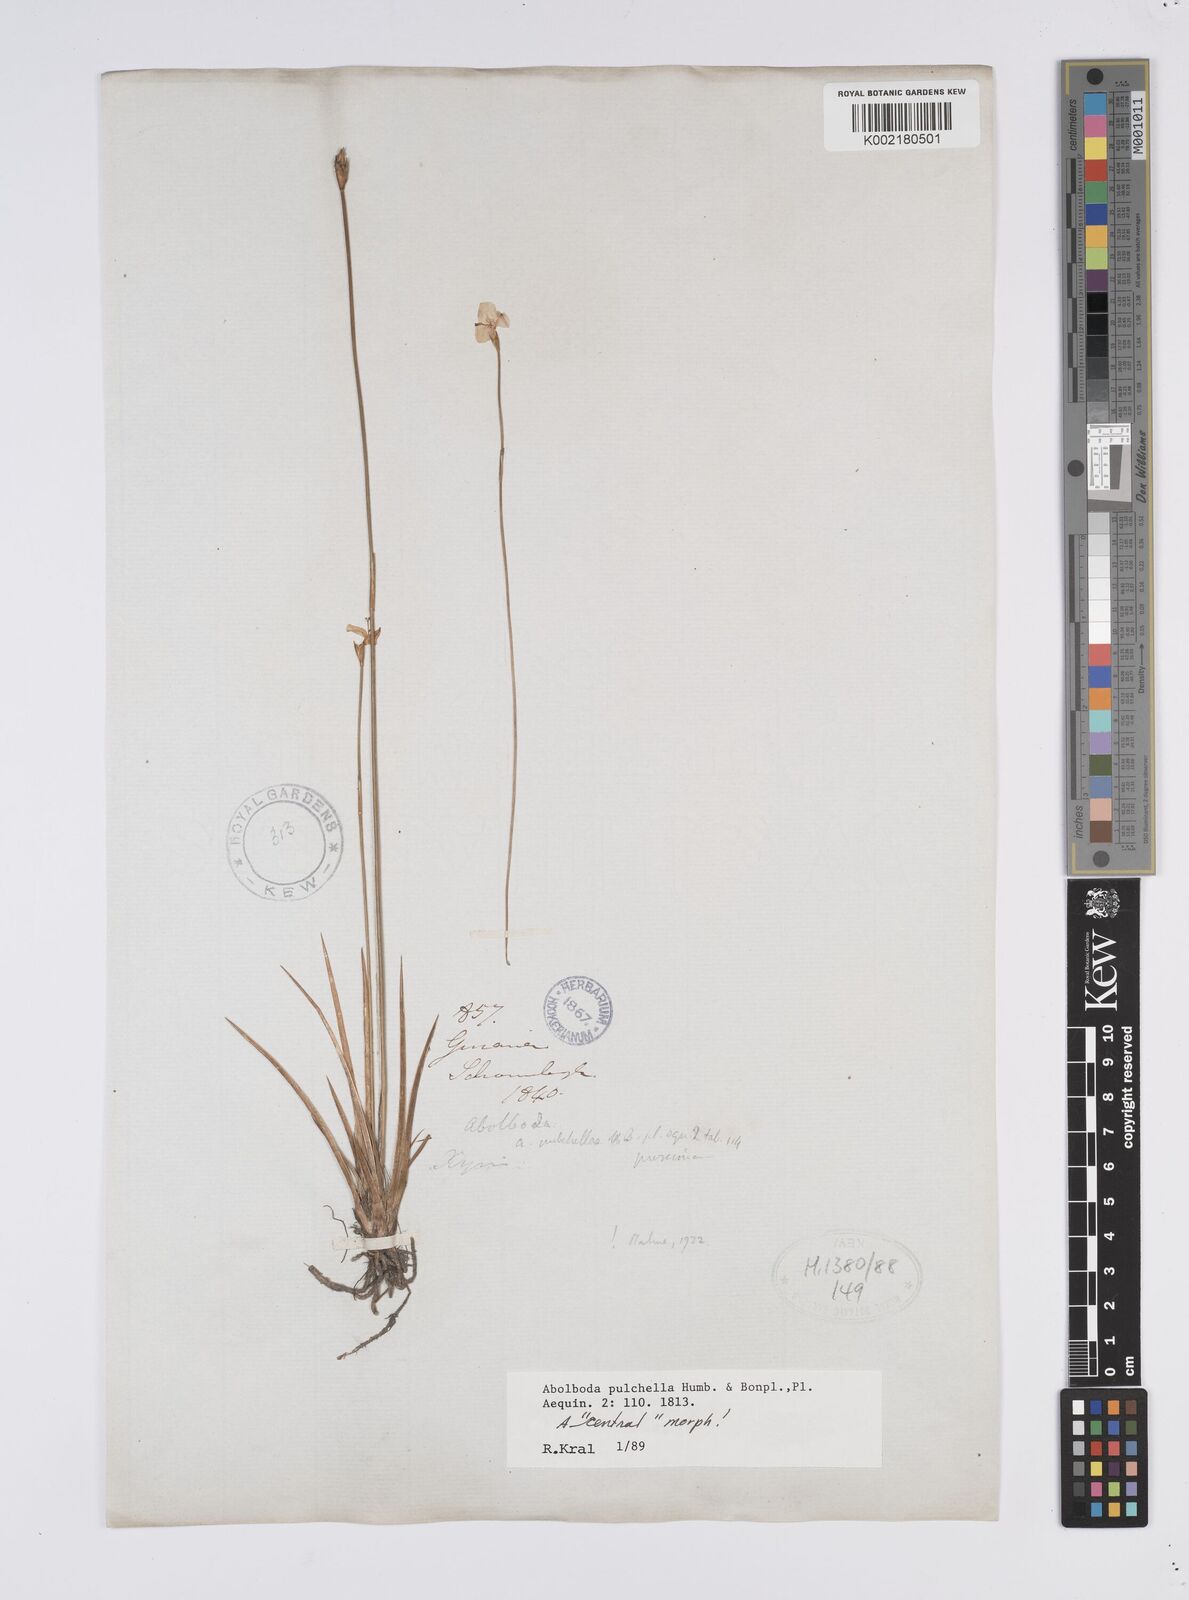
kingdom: Plantae
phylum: Tracheophyta
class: Liliopsida
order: Poales
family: Xyridaceae
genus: Abolboda
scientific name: Abolboda pulchella
